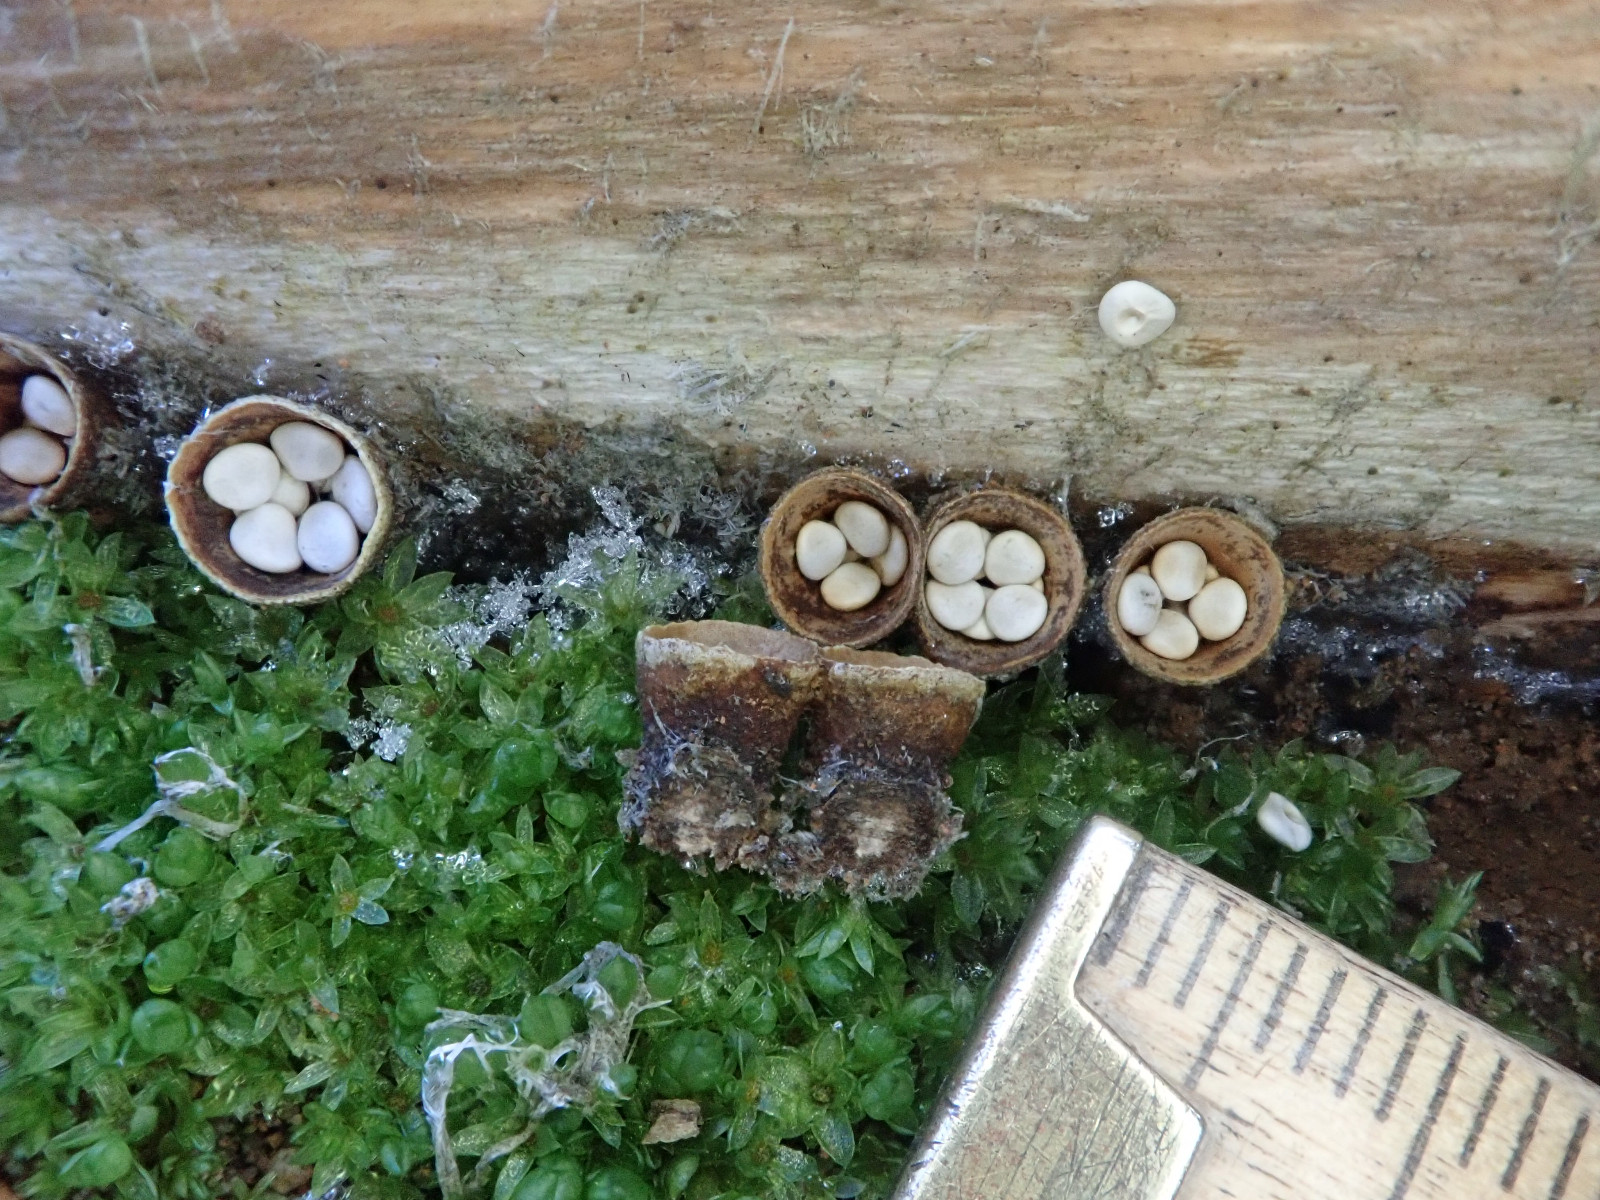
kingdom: Fungi
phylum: Basidiomycota
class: Agaricomycetes
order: Agaricales
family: Nidulariaceae
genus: Crucibulum
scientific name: Crucibulum crucibuliforme
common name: krukkesvamp
